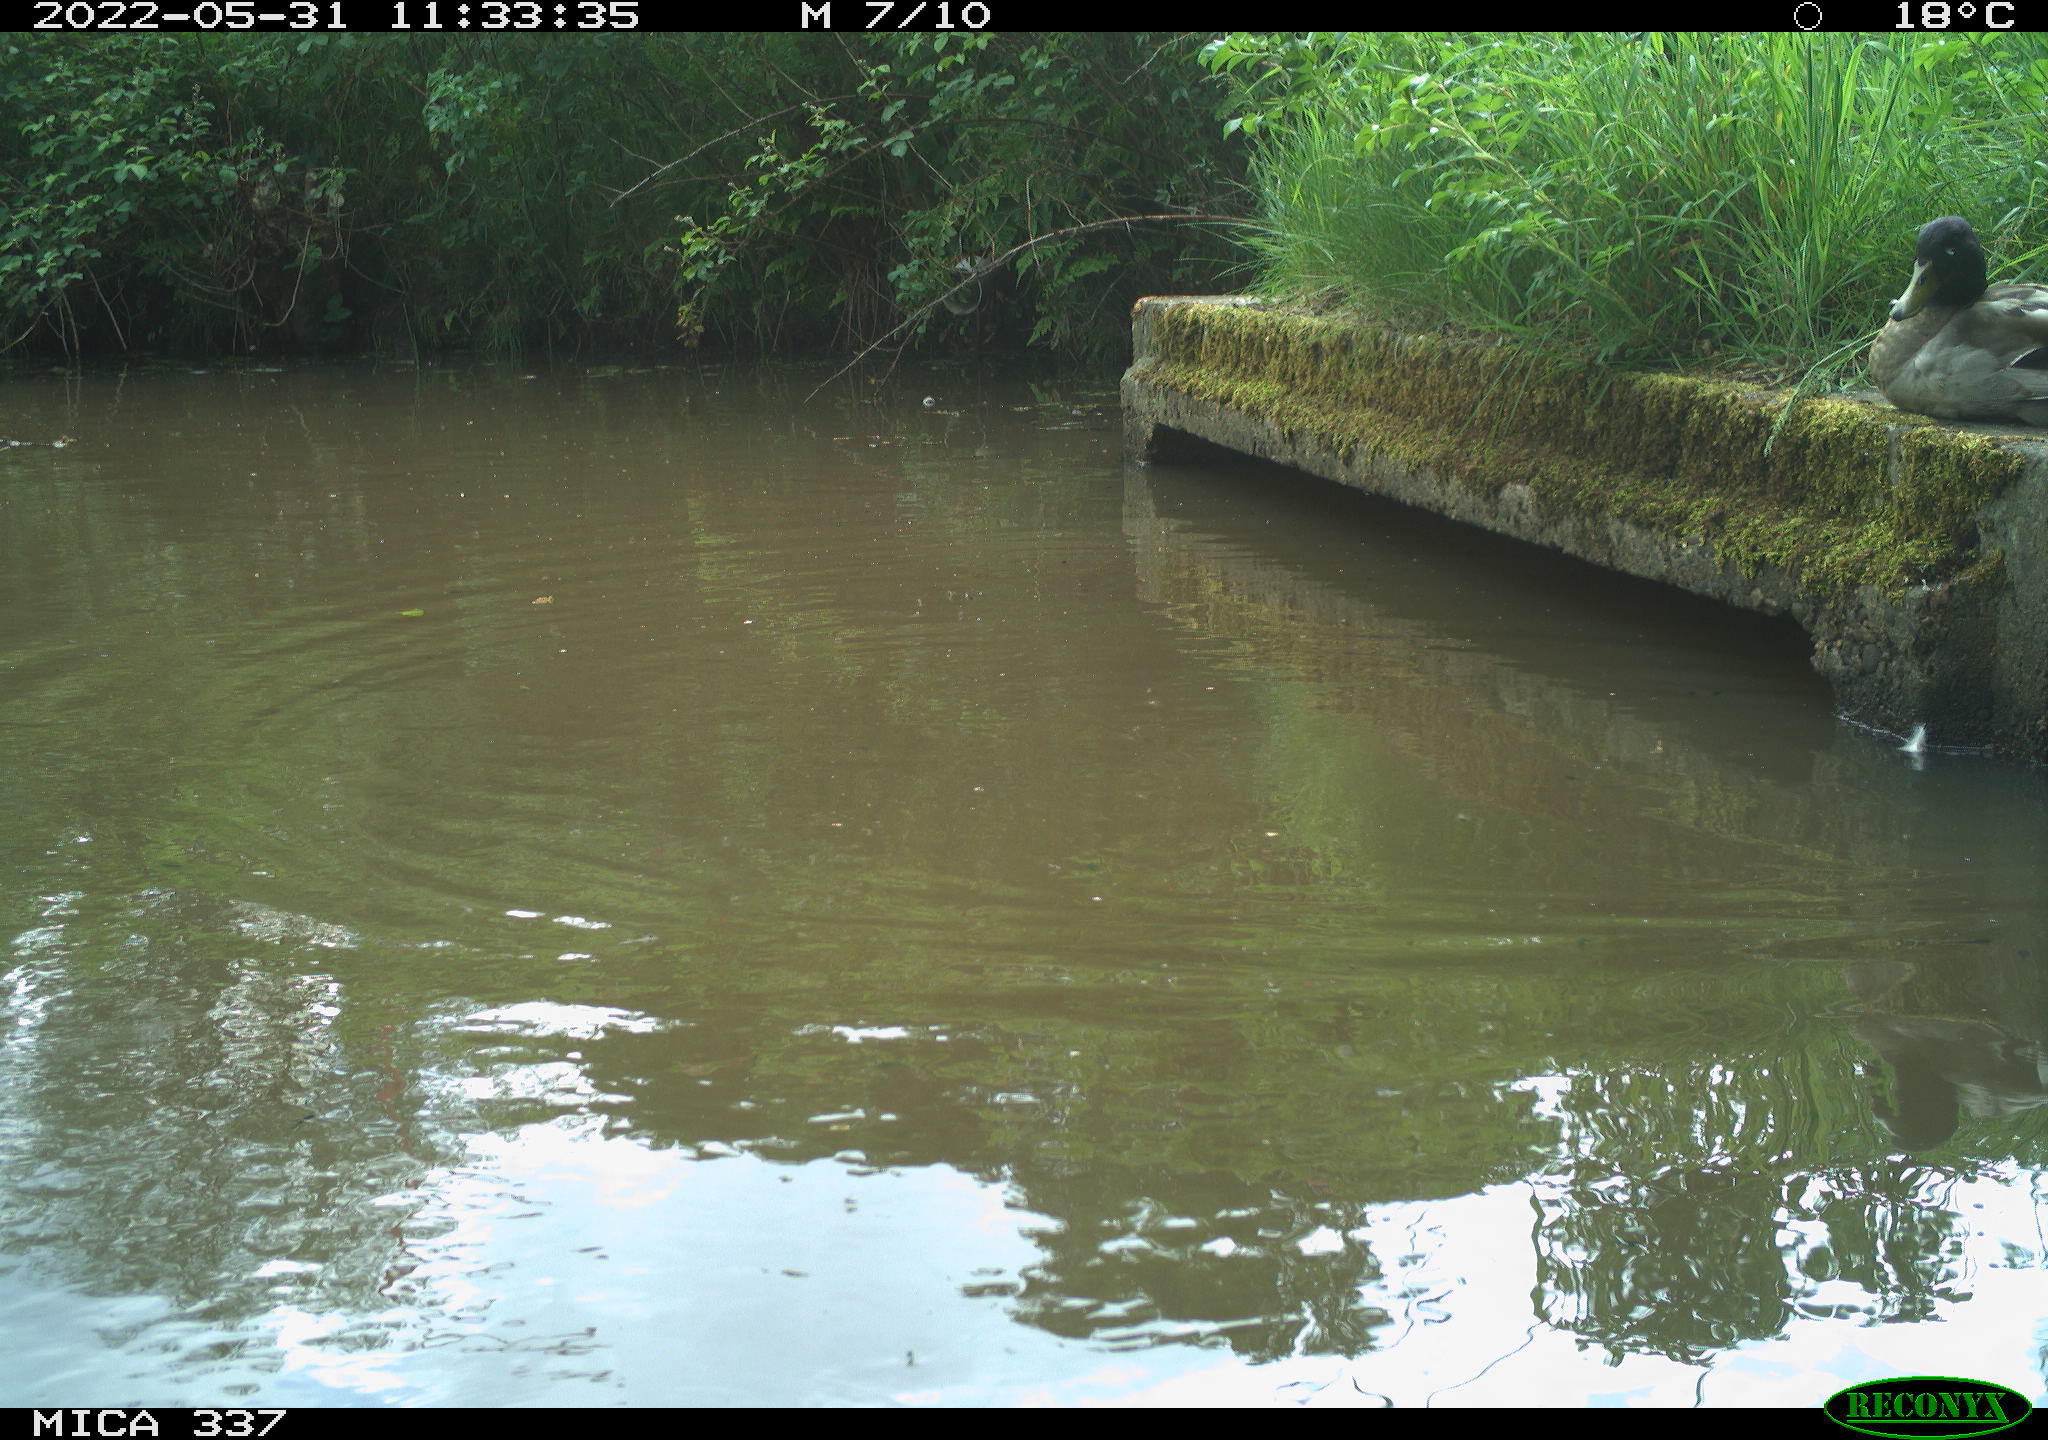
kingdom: Animalia
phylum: Chordata
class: Aves
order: Anseriformes
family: Anatidae
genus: Anas
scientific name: Anas platyrhynchos
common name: Mallard
